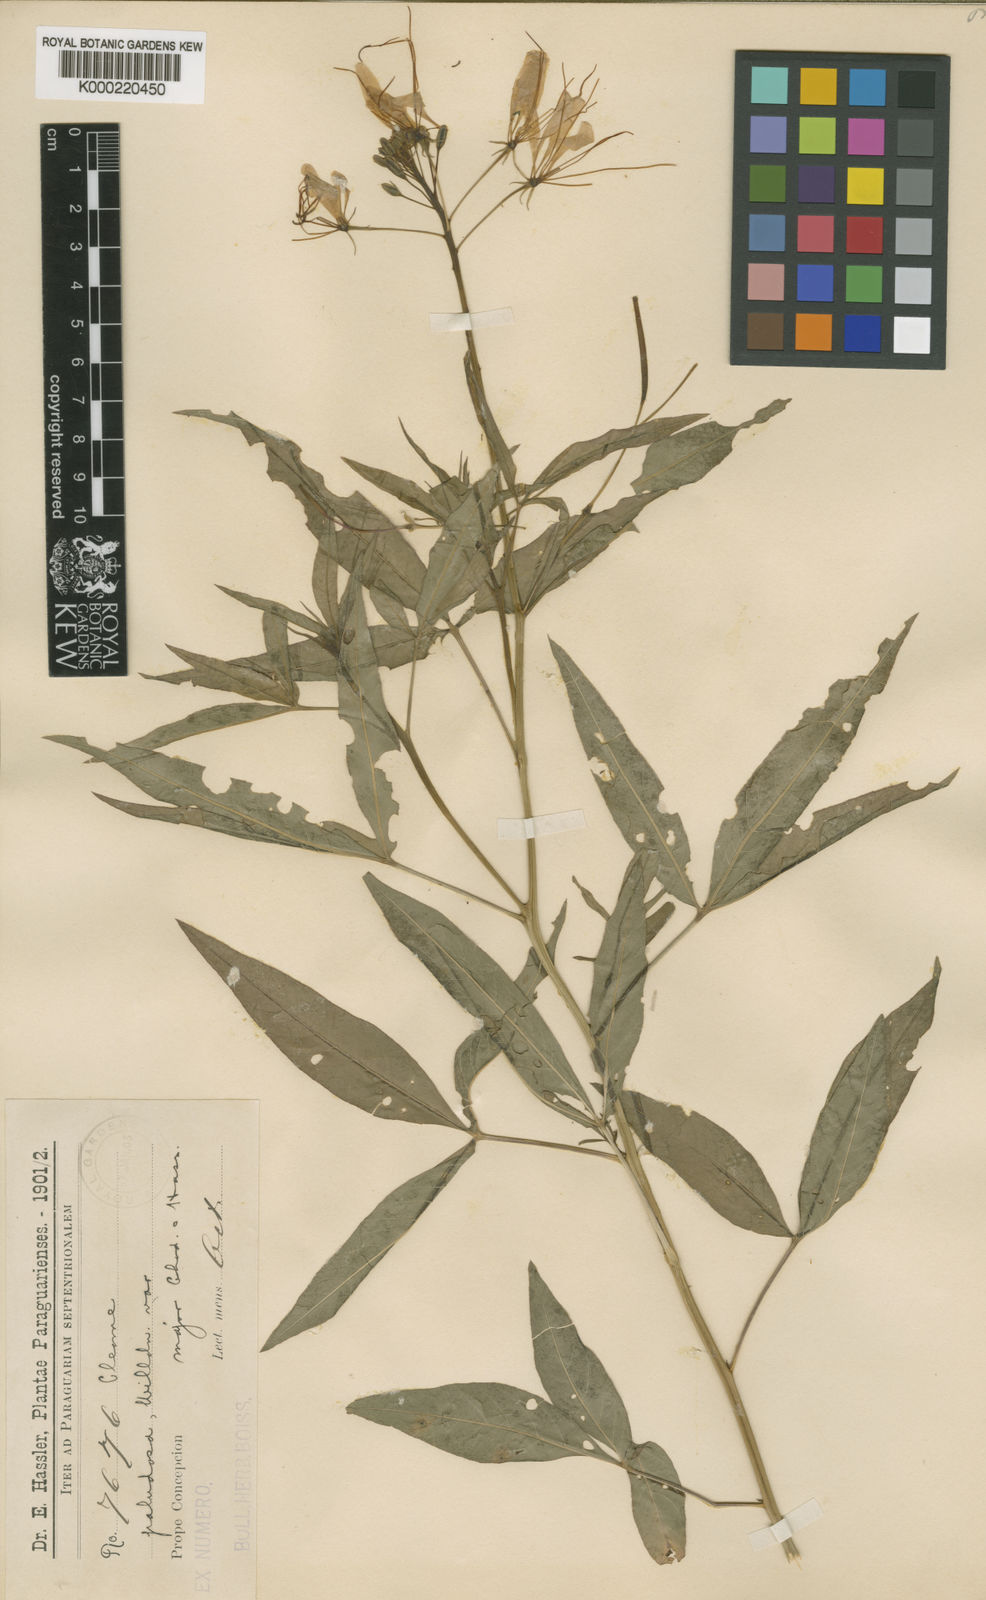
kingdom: Plantae
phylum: Tracheophyta
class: Magnoliopsida
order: Brassicales
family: Cleomaceae
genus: Cleoserrata
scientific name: Cleoserrata paludosa
